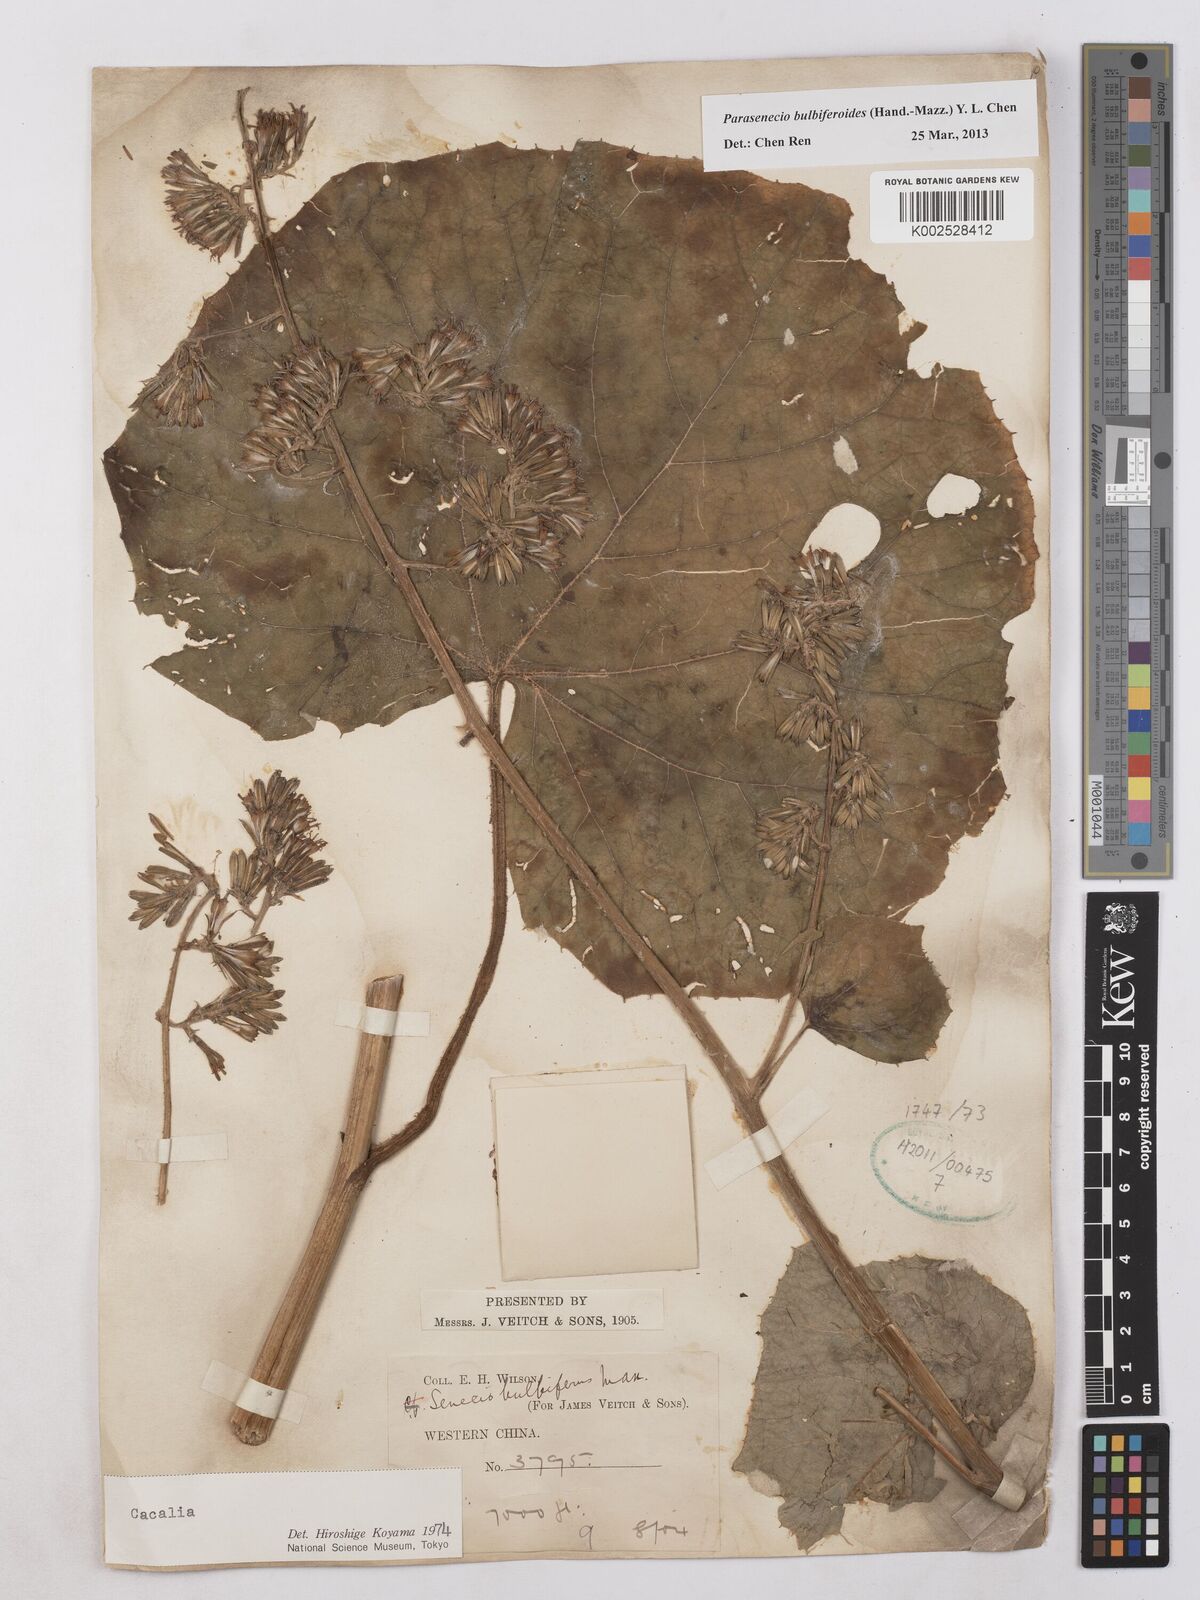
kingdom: Plantae
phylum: Tracheophyta
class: Magnoliopsida
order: Asterales
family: Asteraceae
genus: Parasenecio
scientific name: Parasenecio bulbiferoides
